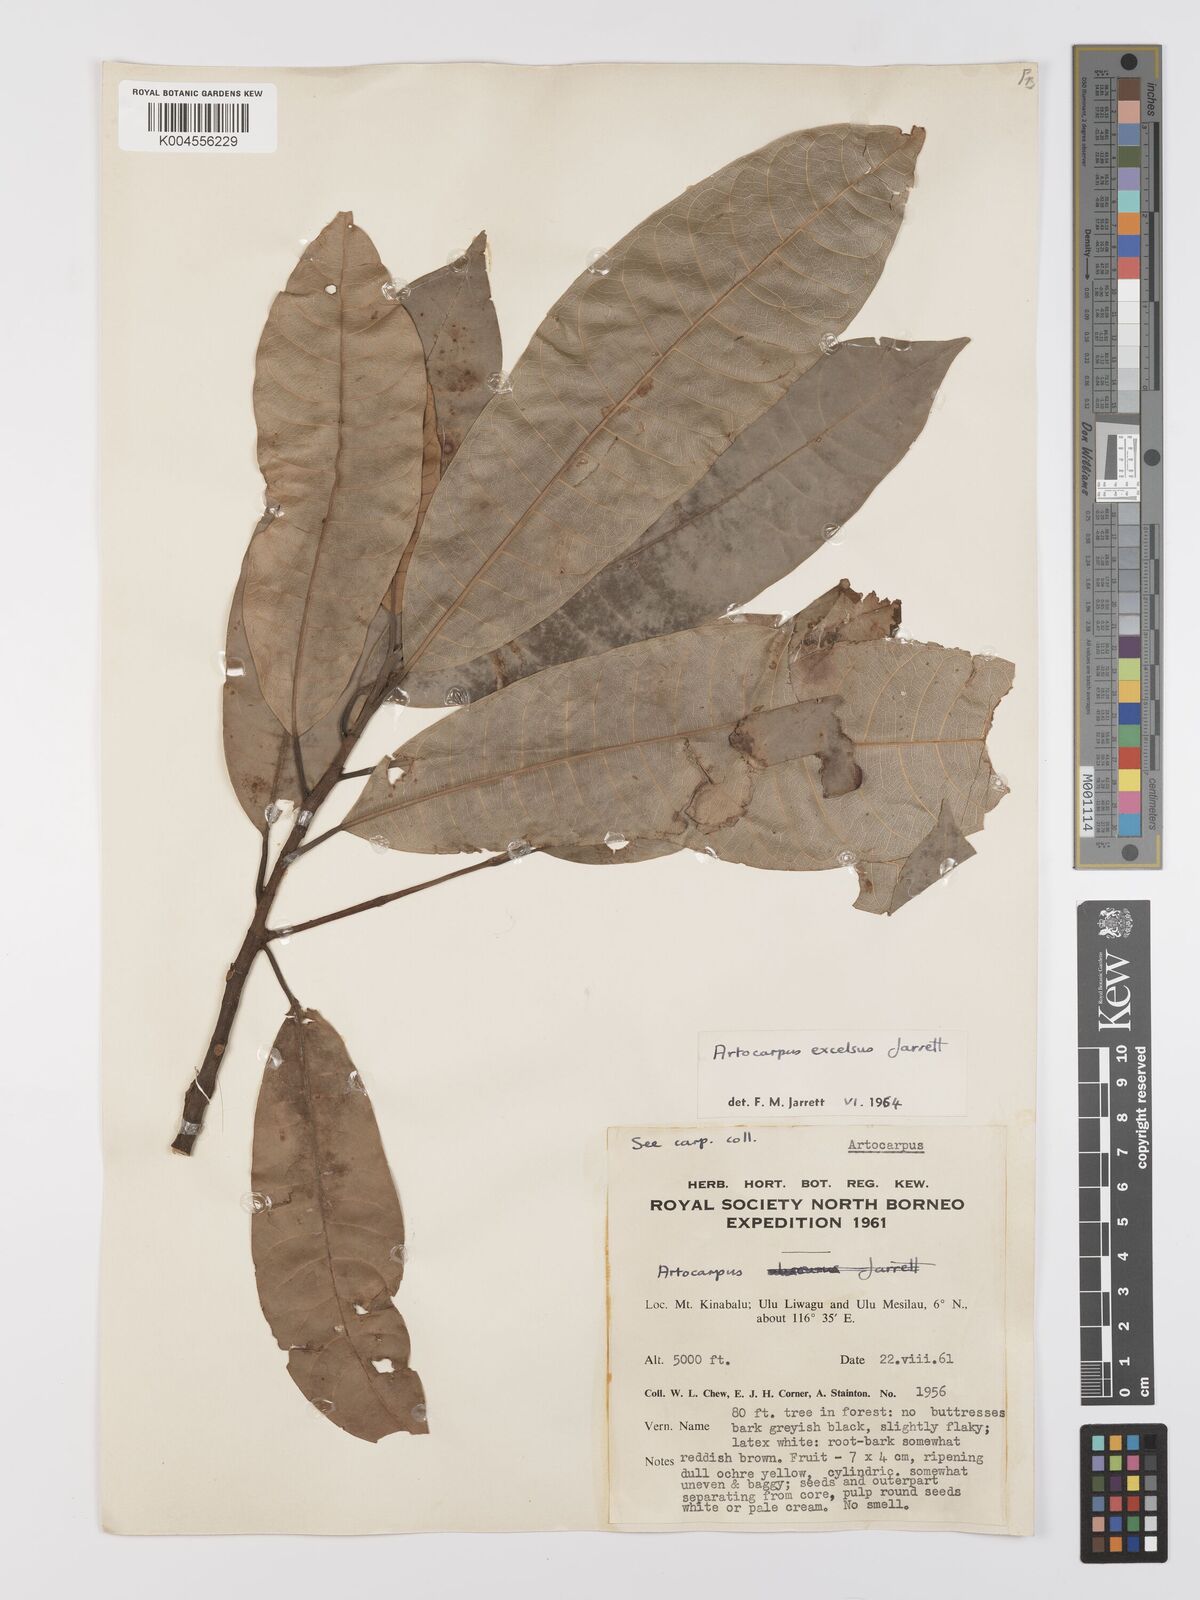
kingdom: Plantae
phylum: Tracheophyta
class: Magnoliopsida
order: Rosales
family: Moraceae
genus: Artocarpus
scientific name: Artocarpus excelsus
